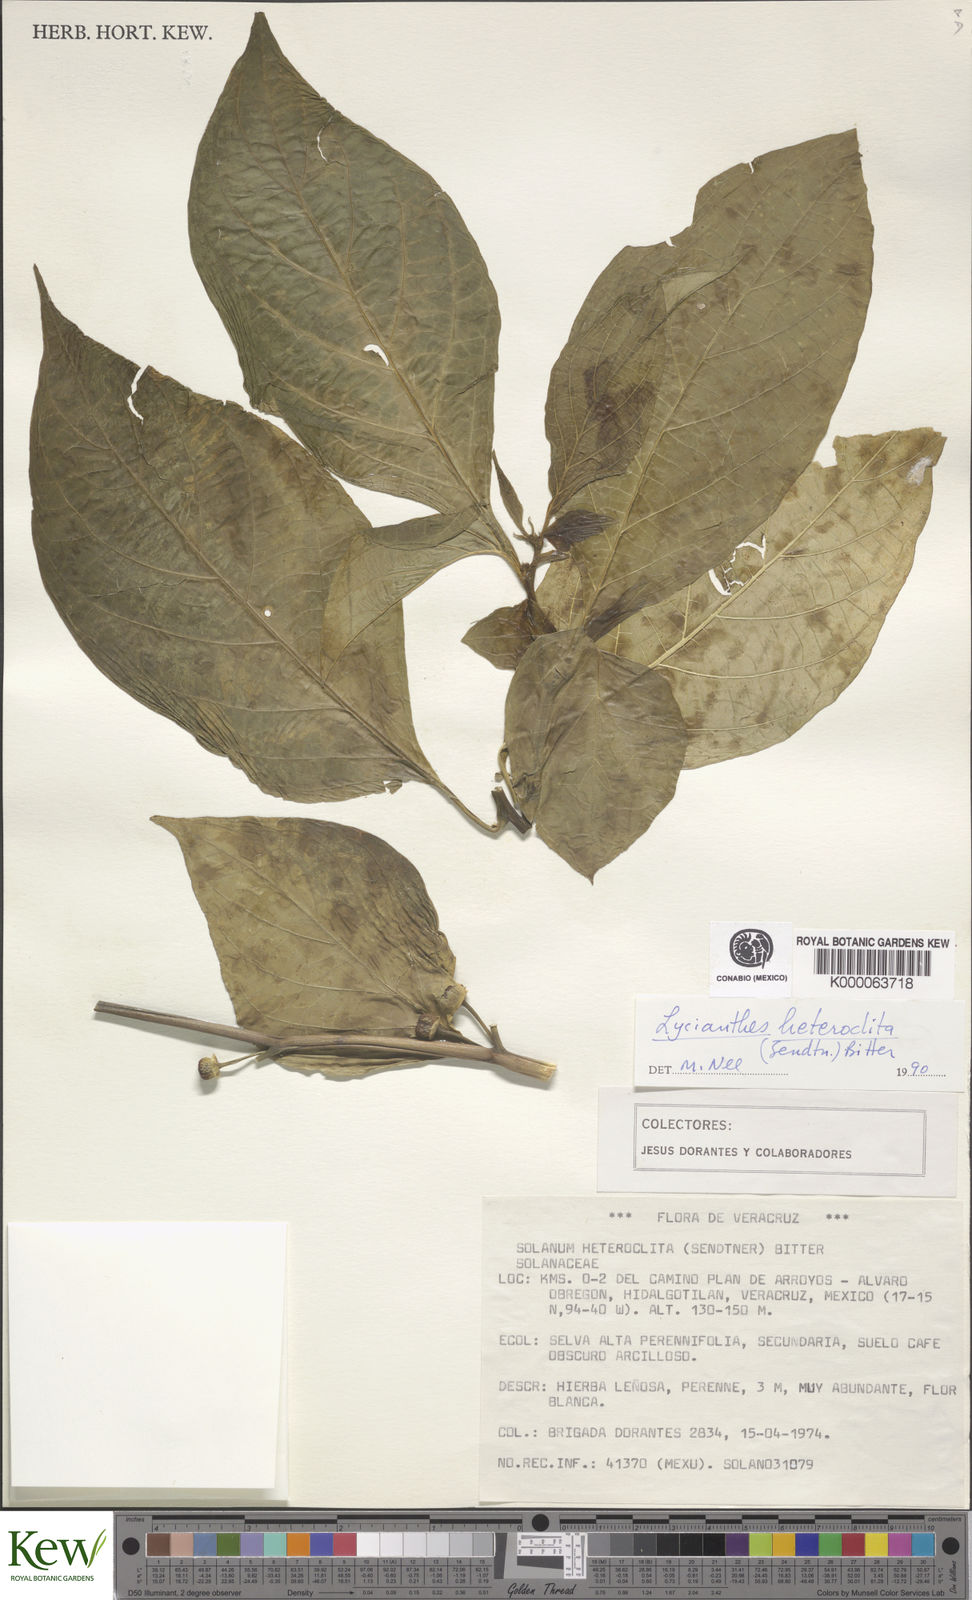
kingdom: Plantae
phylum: Tracheophyta
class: Magnoliopsida
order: Solanales
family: Solanaceae
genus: Lycianthes
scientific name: Lycianthes heteroclita
